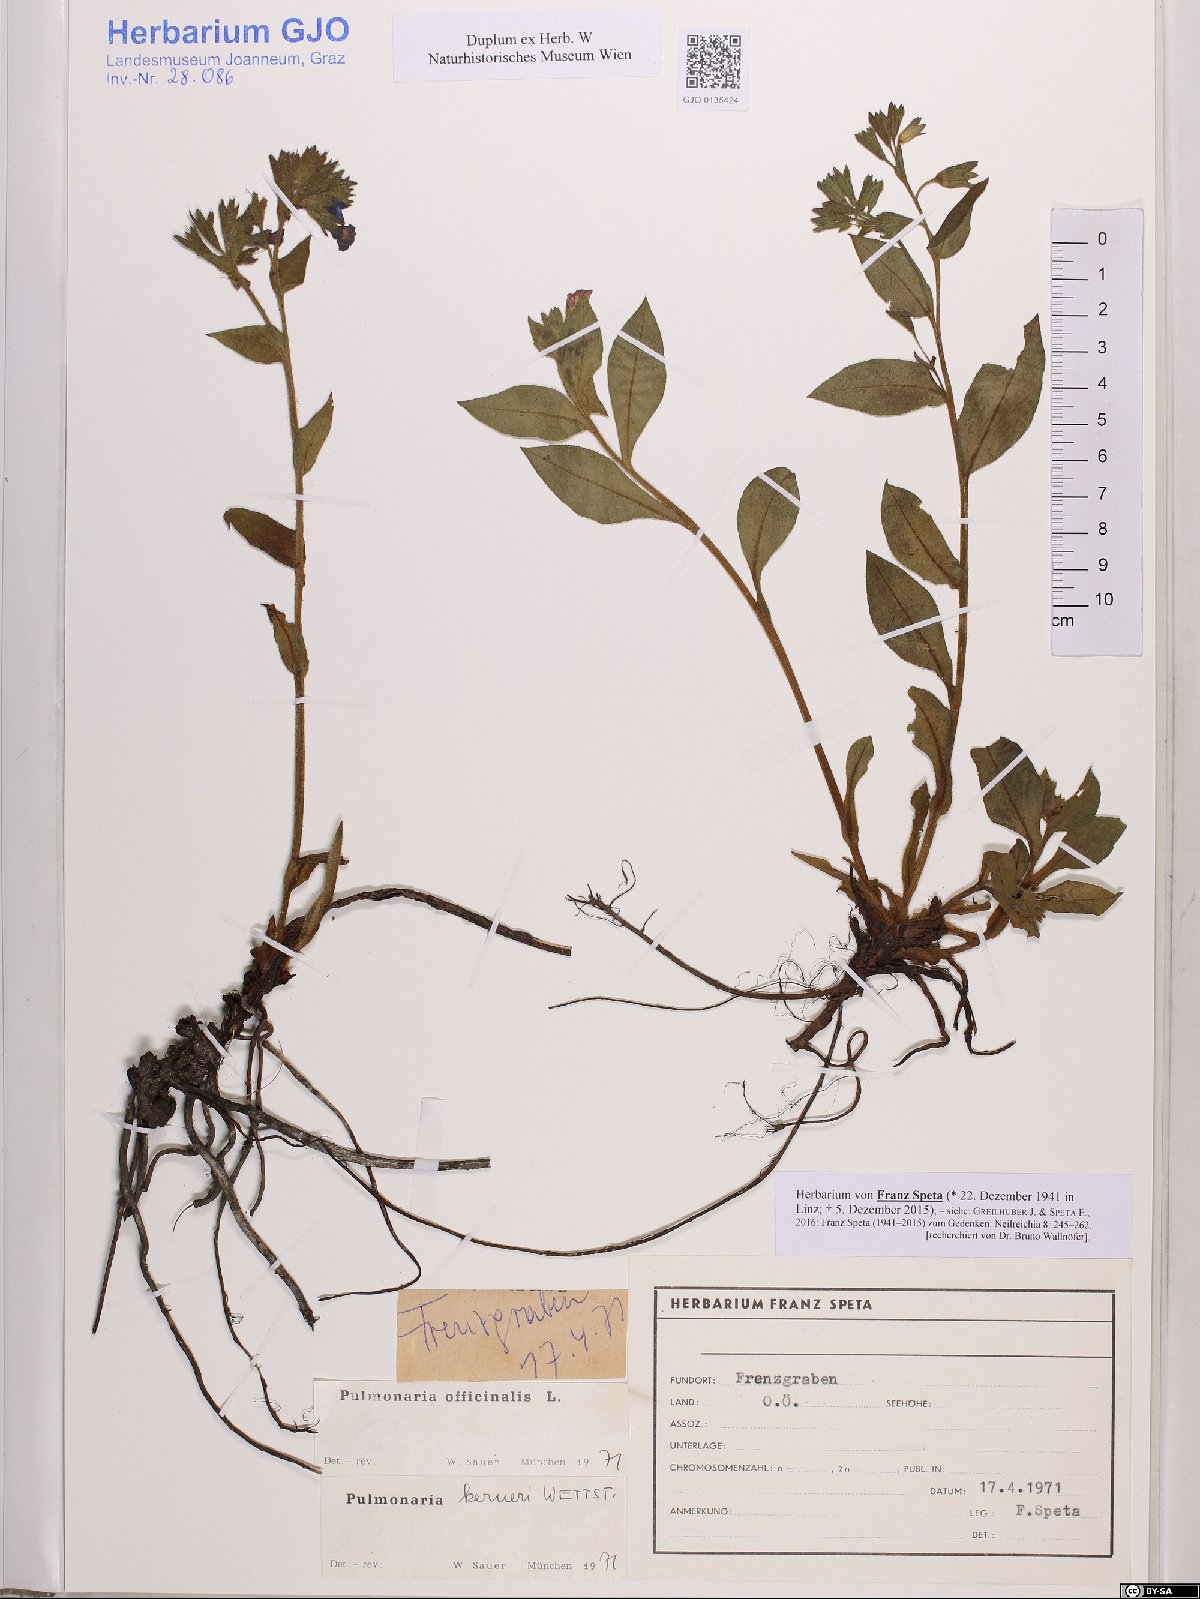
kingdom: Plantae
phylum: Tracheophyta
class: Magnoliopsida
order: Boraginales
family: Boraginaceae
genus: Pulmonaria
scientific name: Pulmonaria officinalis
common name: Lungwort
